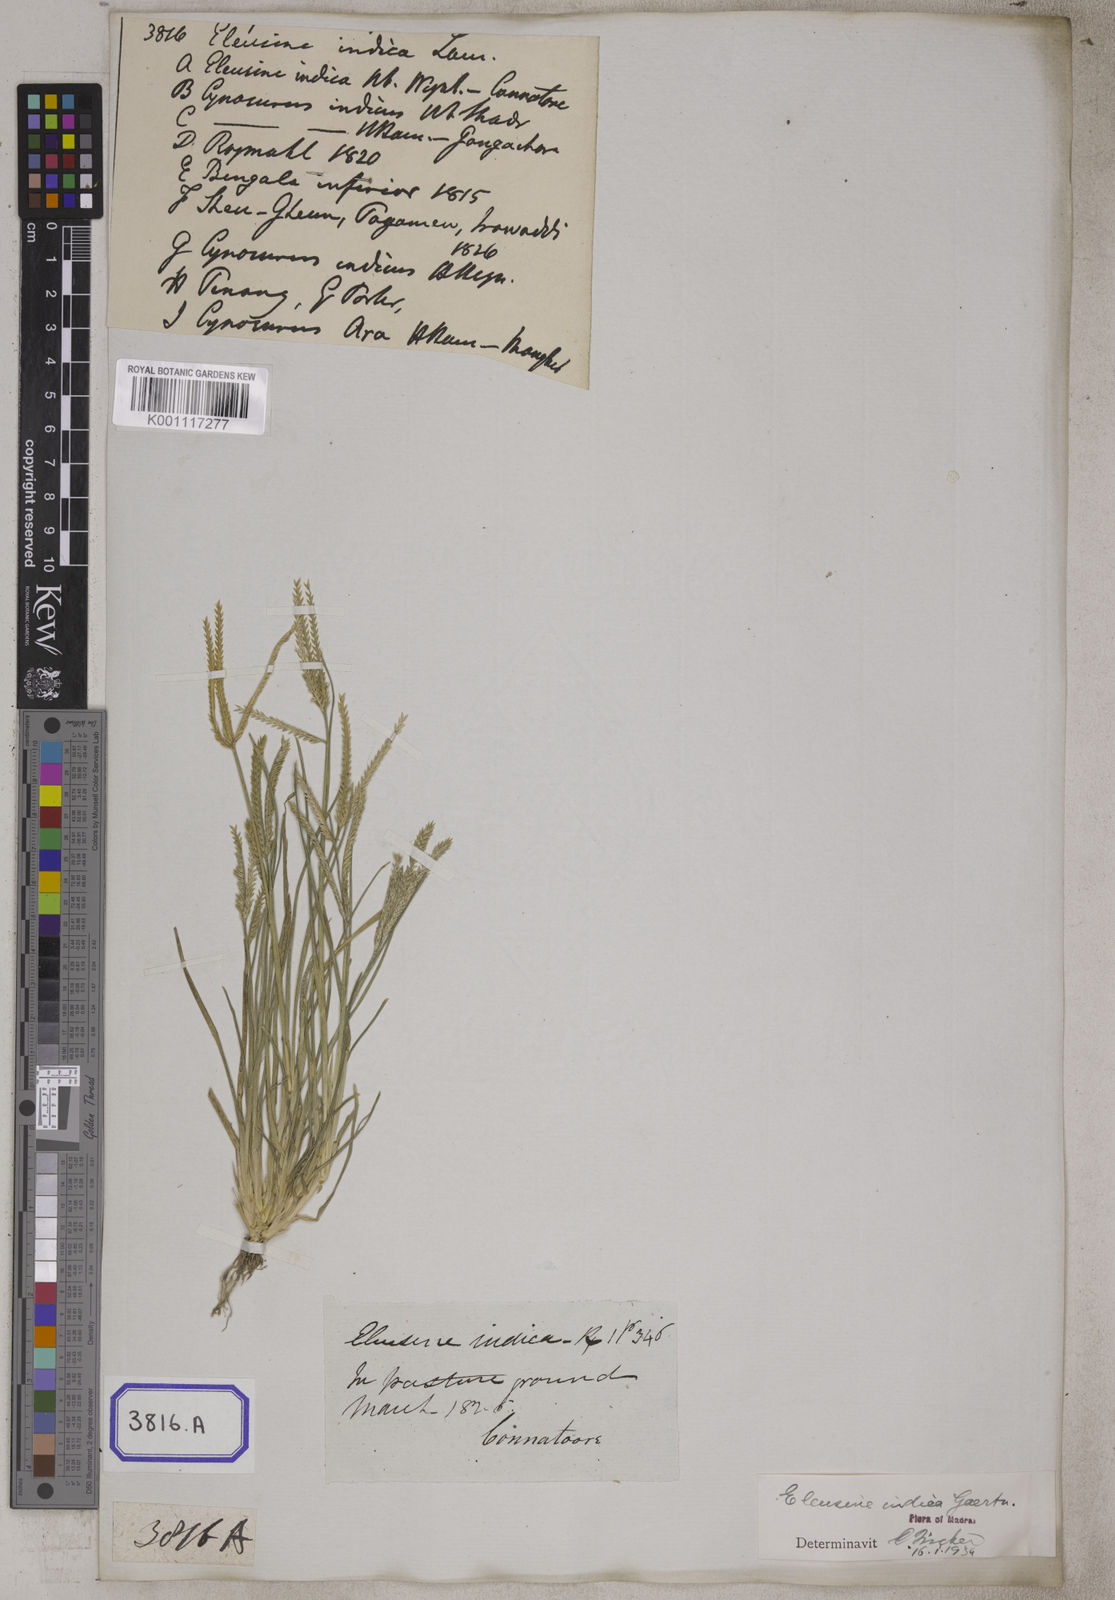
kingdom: Plantae
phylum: Tracheophyta
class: Liliopsida
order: Poales
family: Poaceae
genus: Eleusine
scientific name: Eleusine
